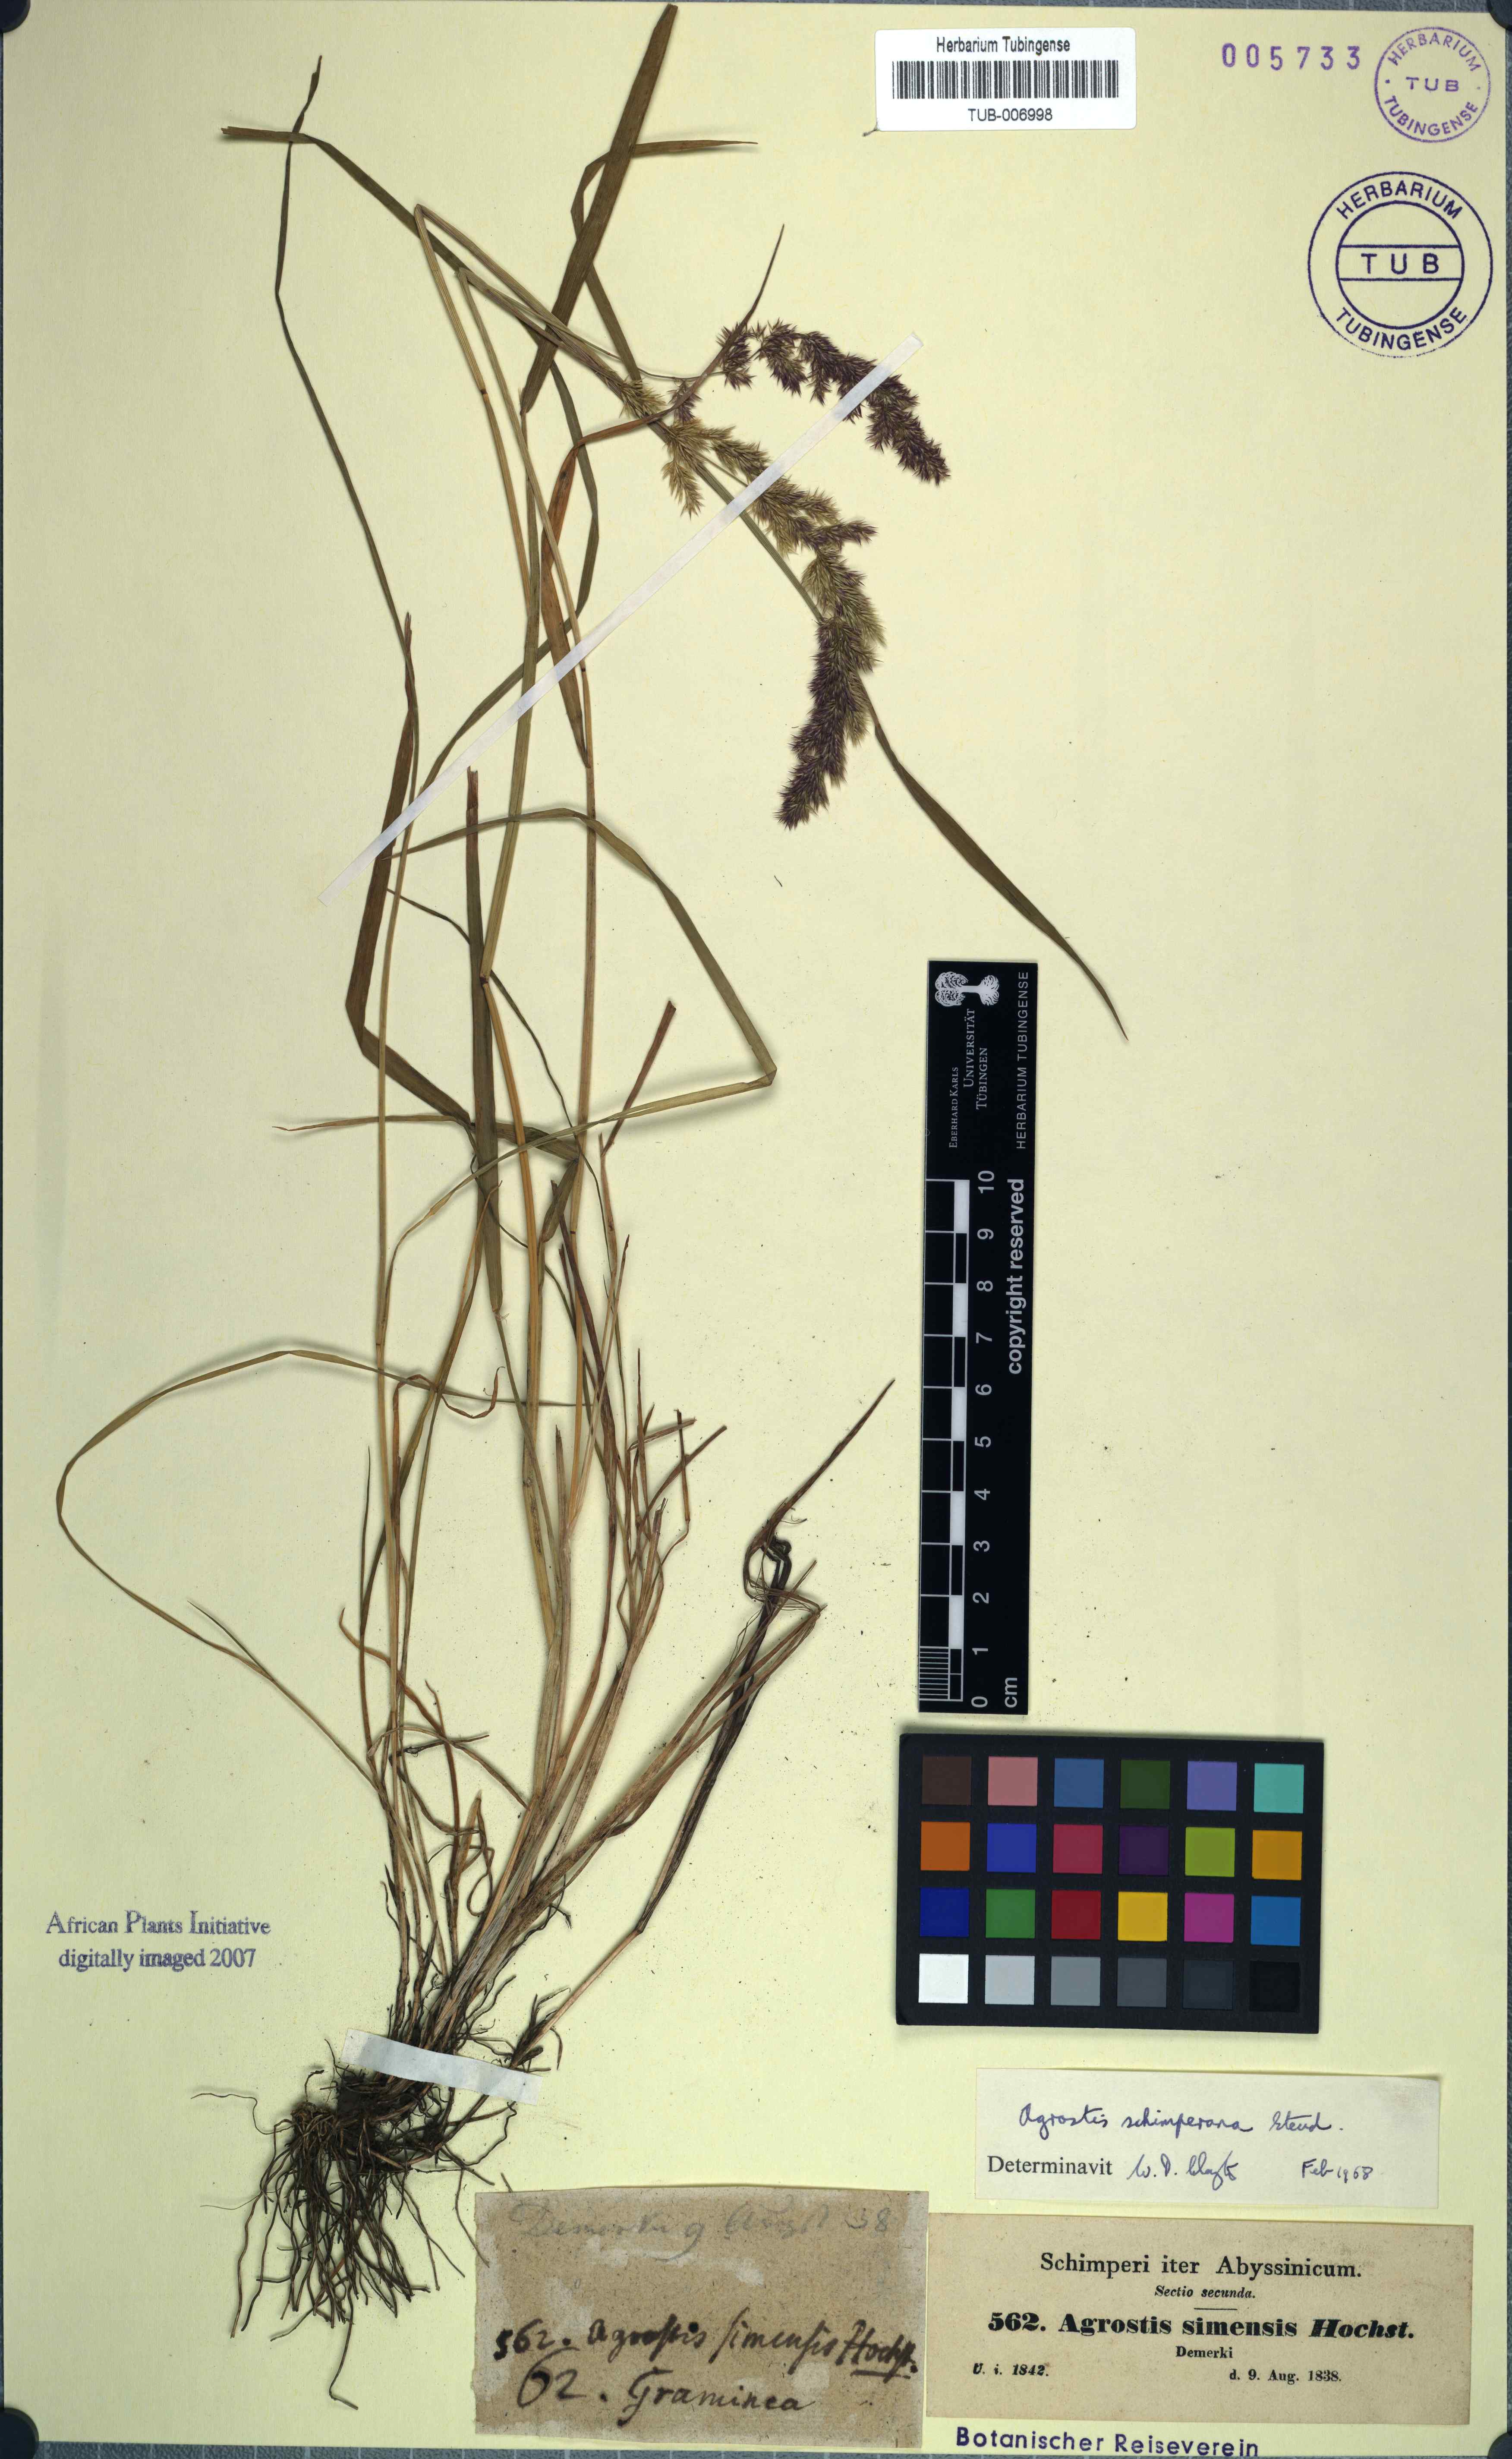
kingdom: Plantae
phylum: Tracheophyta
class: Liliopsida
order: Poales
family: Poaceae
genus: Polypogon
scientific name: Polypogon schimperianus
